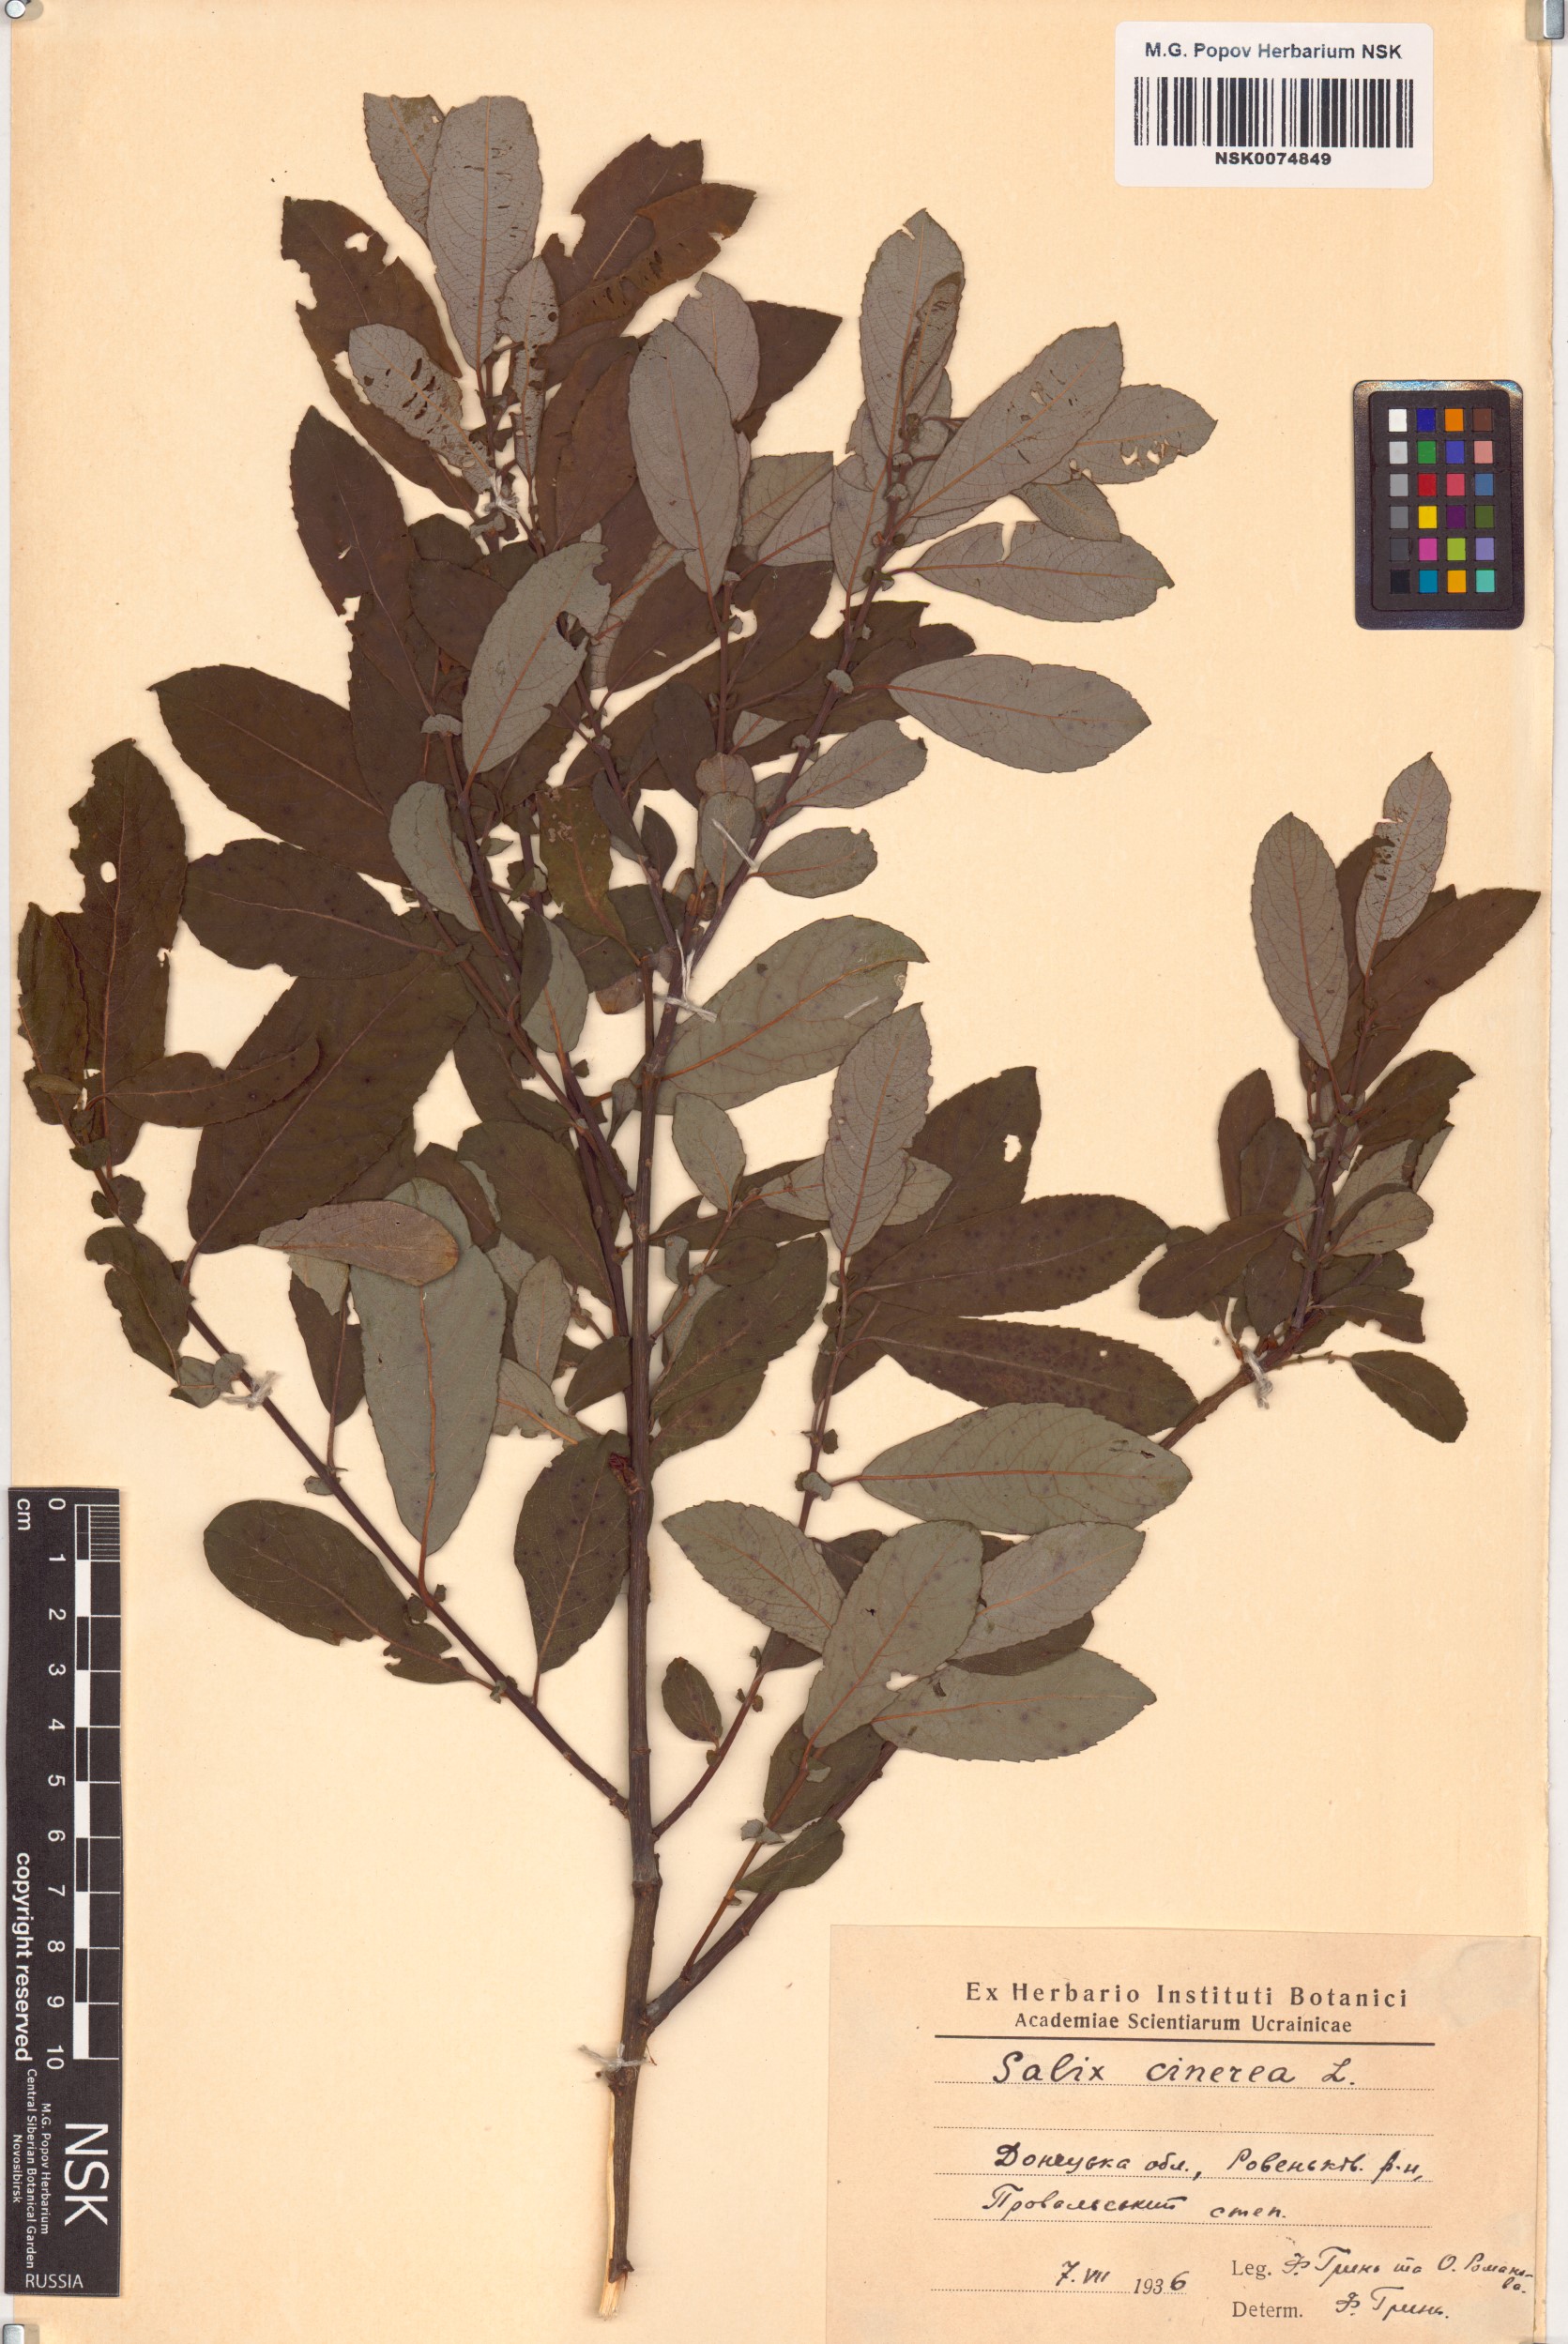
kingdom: Plantae
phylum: Tracheophyta
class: Magnoliopsida
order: Malpighiales
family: Salicaceae
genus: Salix
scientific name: Salix cinerea
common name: Common sallow
